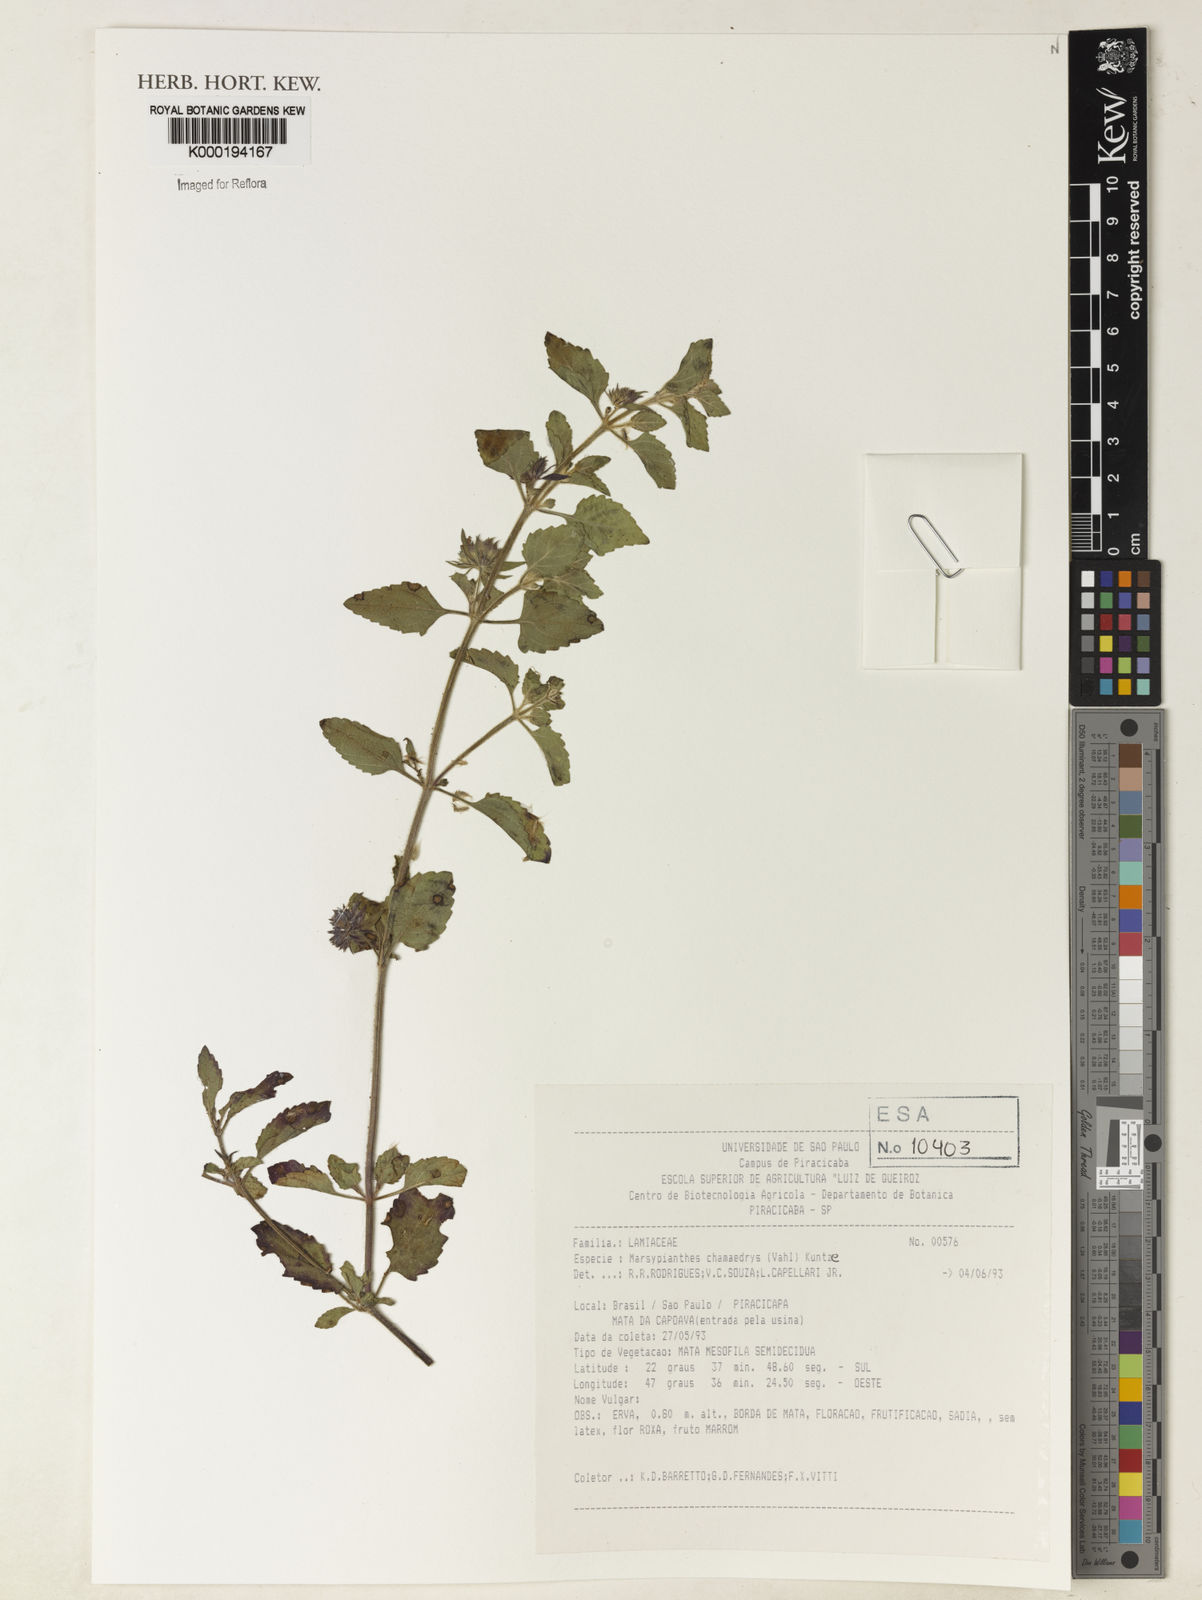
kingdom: Plantae
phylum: Tracheophyta
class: Magnoliopsida
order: Lamiales
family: Lamiaceae
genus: Marsypianthes
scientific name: Marsypianthes chamaedrys
